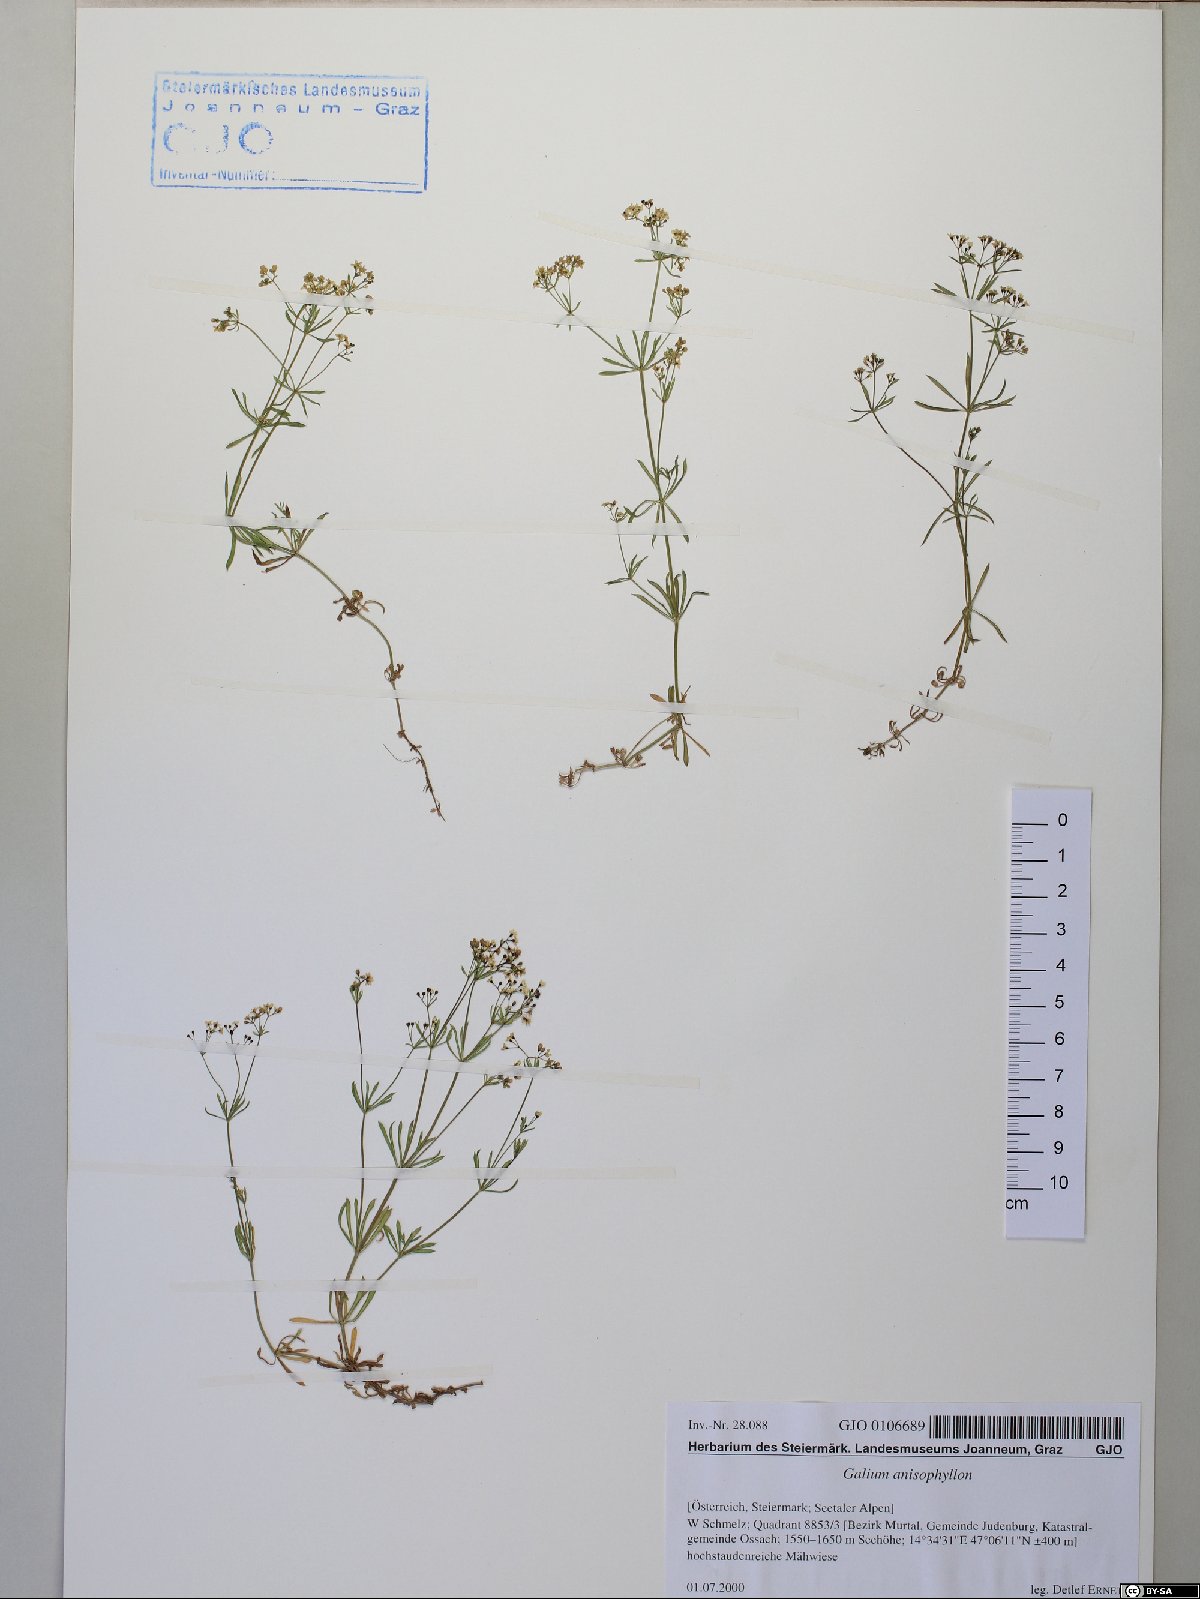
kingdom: Plantae
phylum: Tracheophyta
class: Magnoliopsida
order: Gentianales
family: Rubiaceae
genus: Galium
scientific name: Galium anisophyllon
